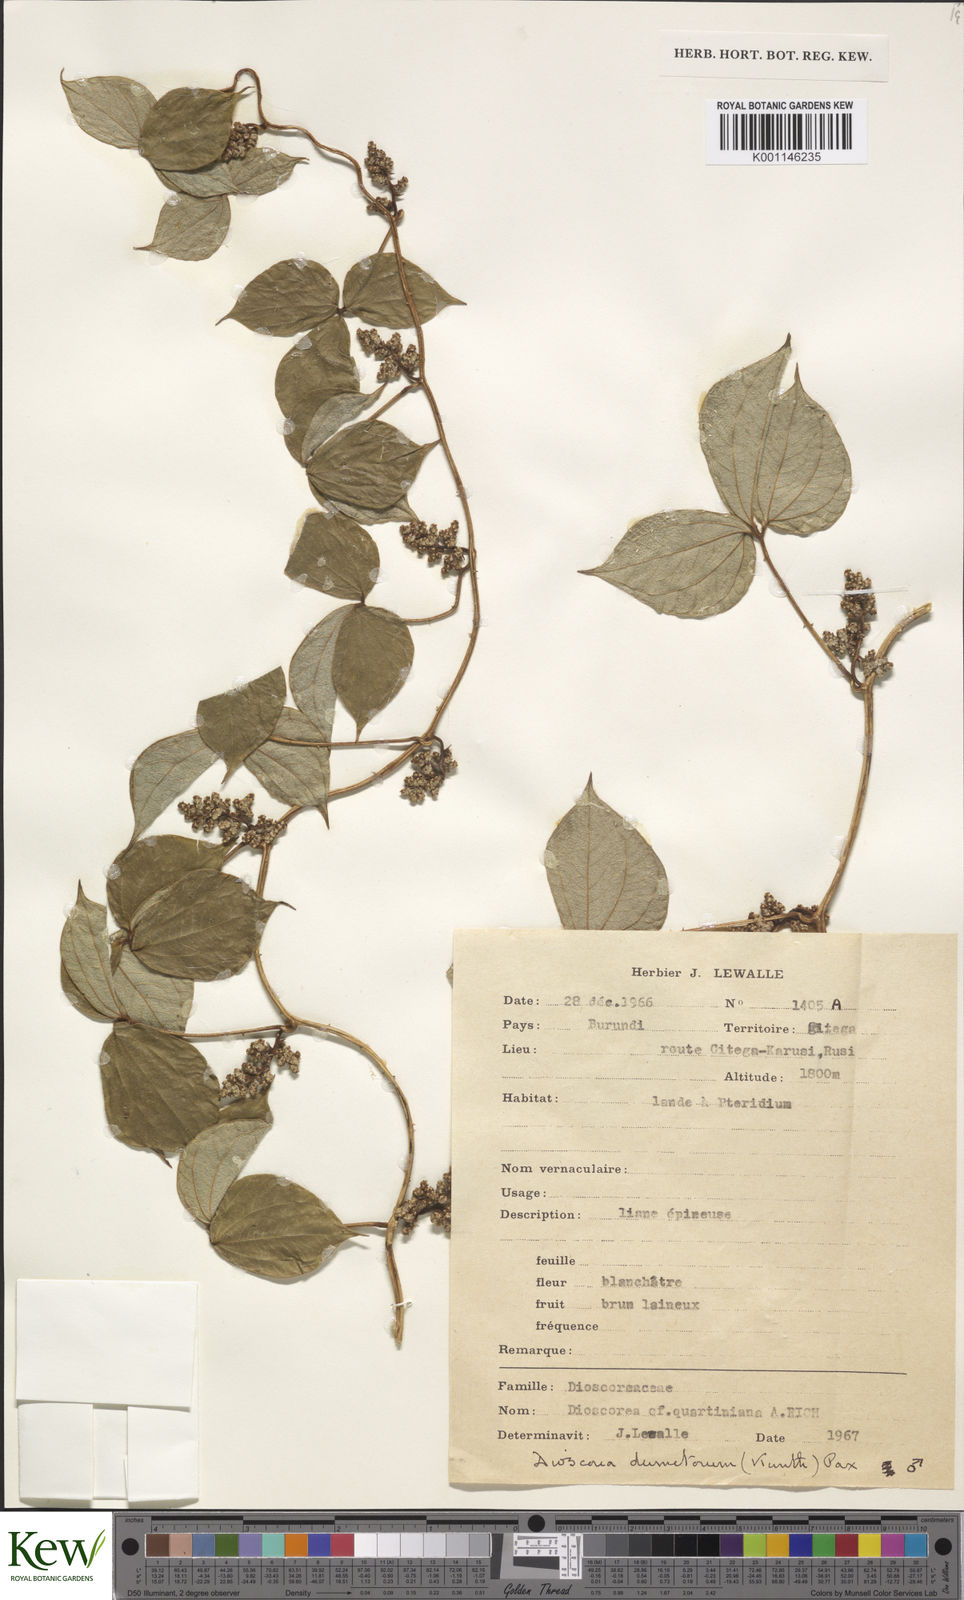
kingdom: Plantae
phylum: Tracheophyta
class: Liliopsida
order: Dioscoreales
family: Dioscoreaceae
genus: Dioscorea
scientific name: Dioscorea dumetorum
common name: African bitter yam
